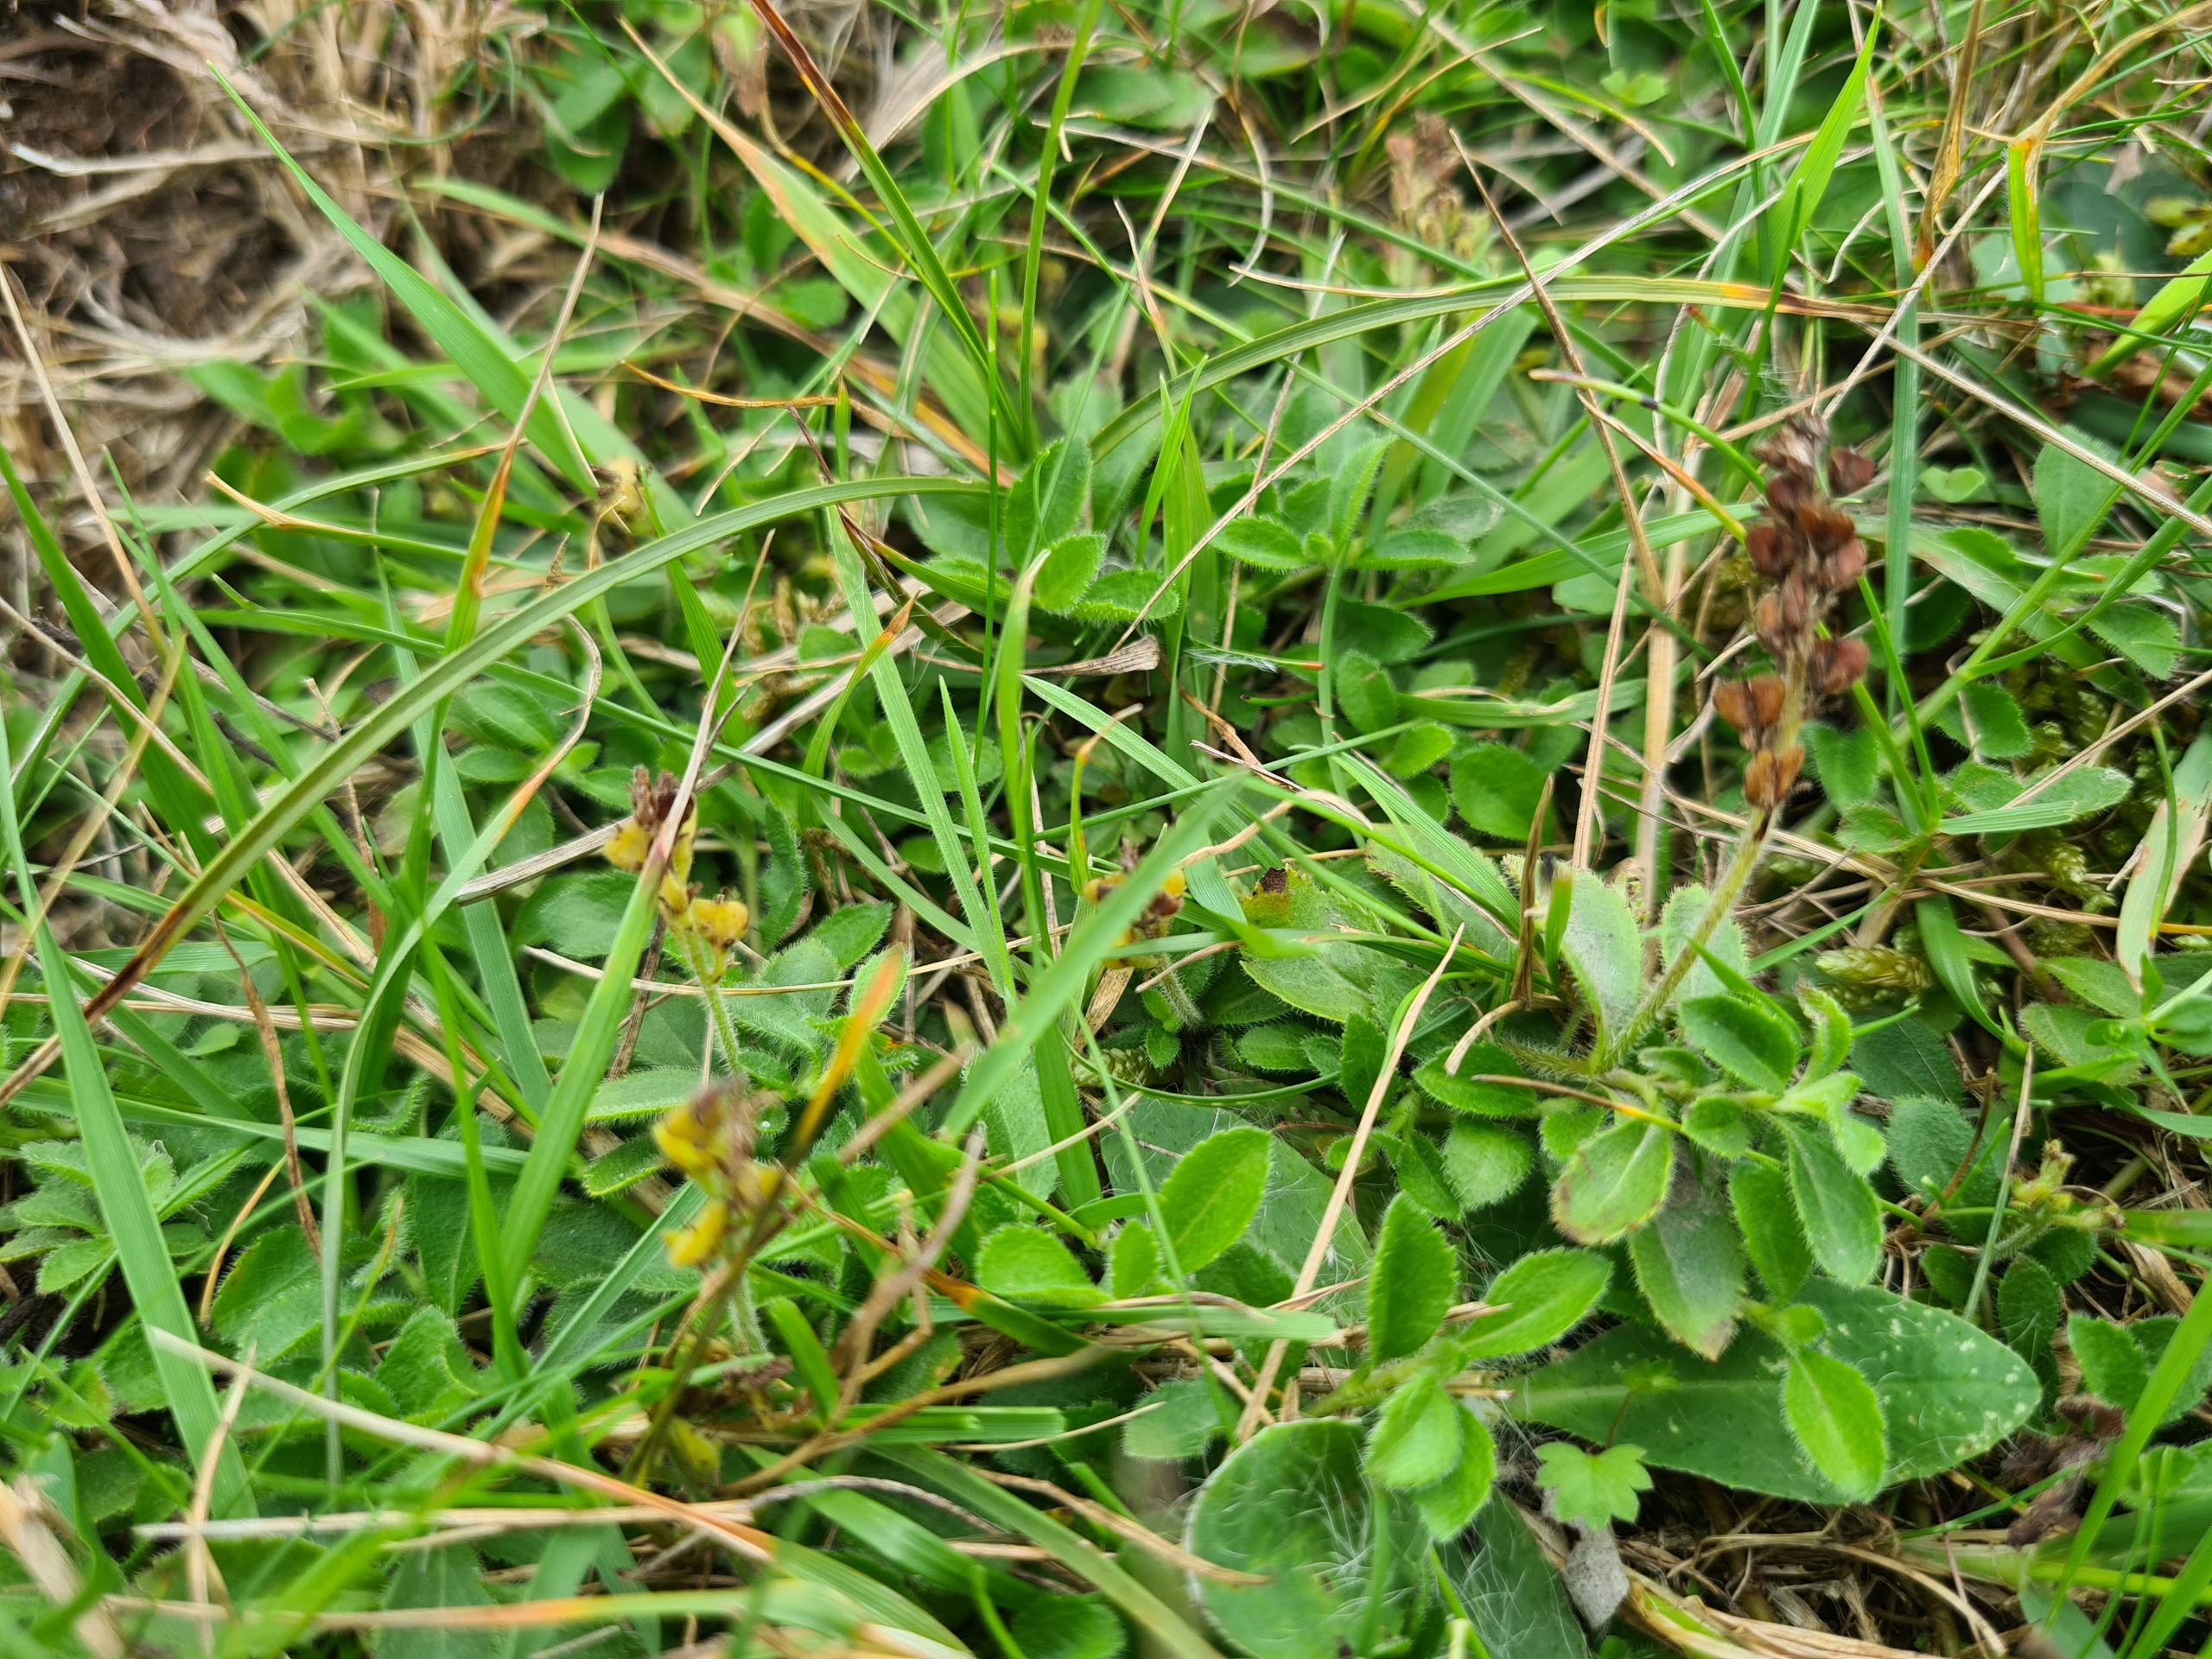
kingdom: Plantae
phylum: Tracheophyta
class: Magnoliopsida
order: Lamiales
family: Plantaginaceae
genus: Veronica
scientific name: Veronica officinalis
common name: Læge-ærenpris
